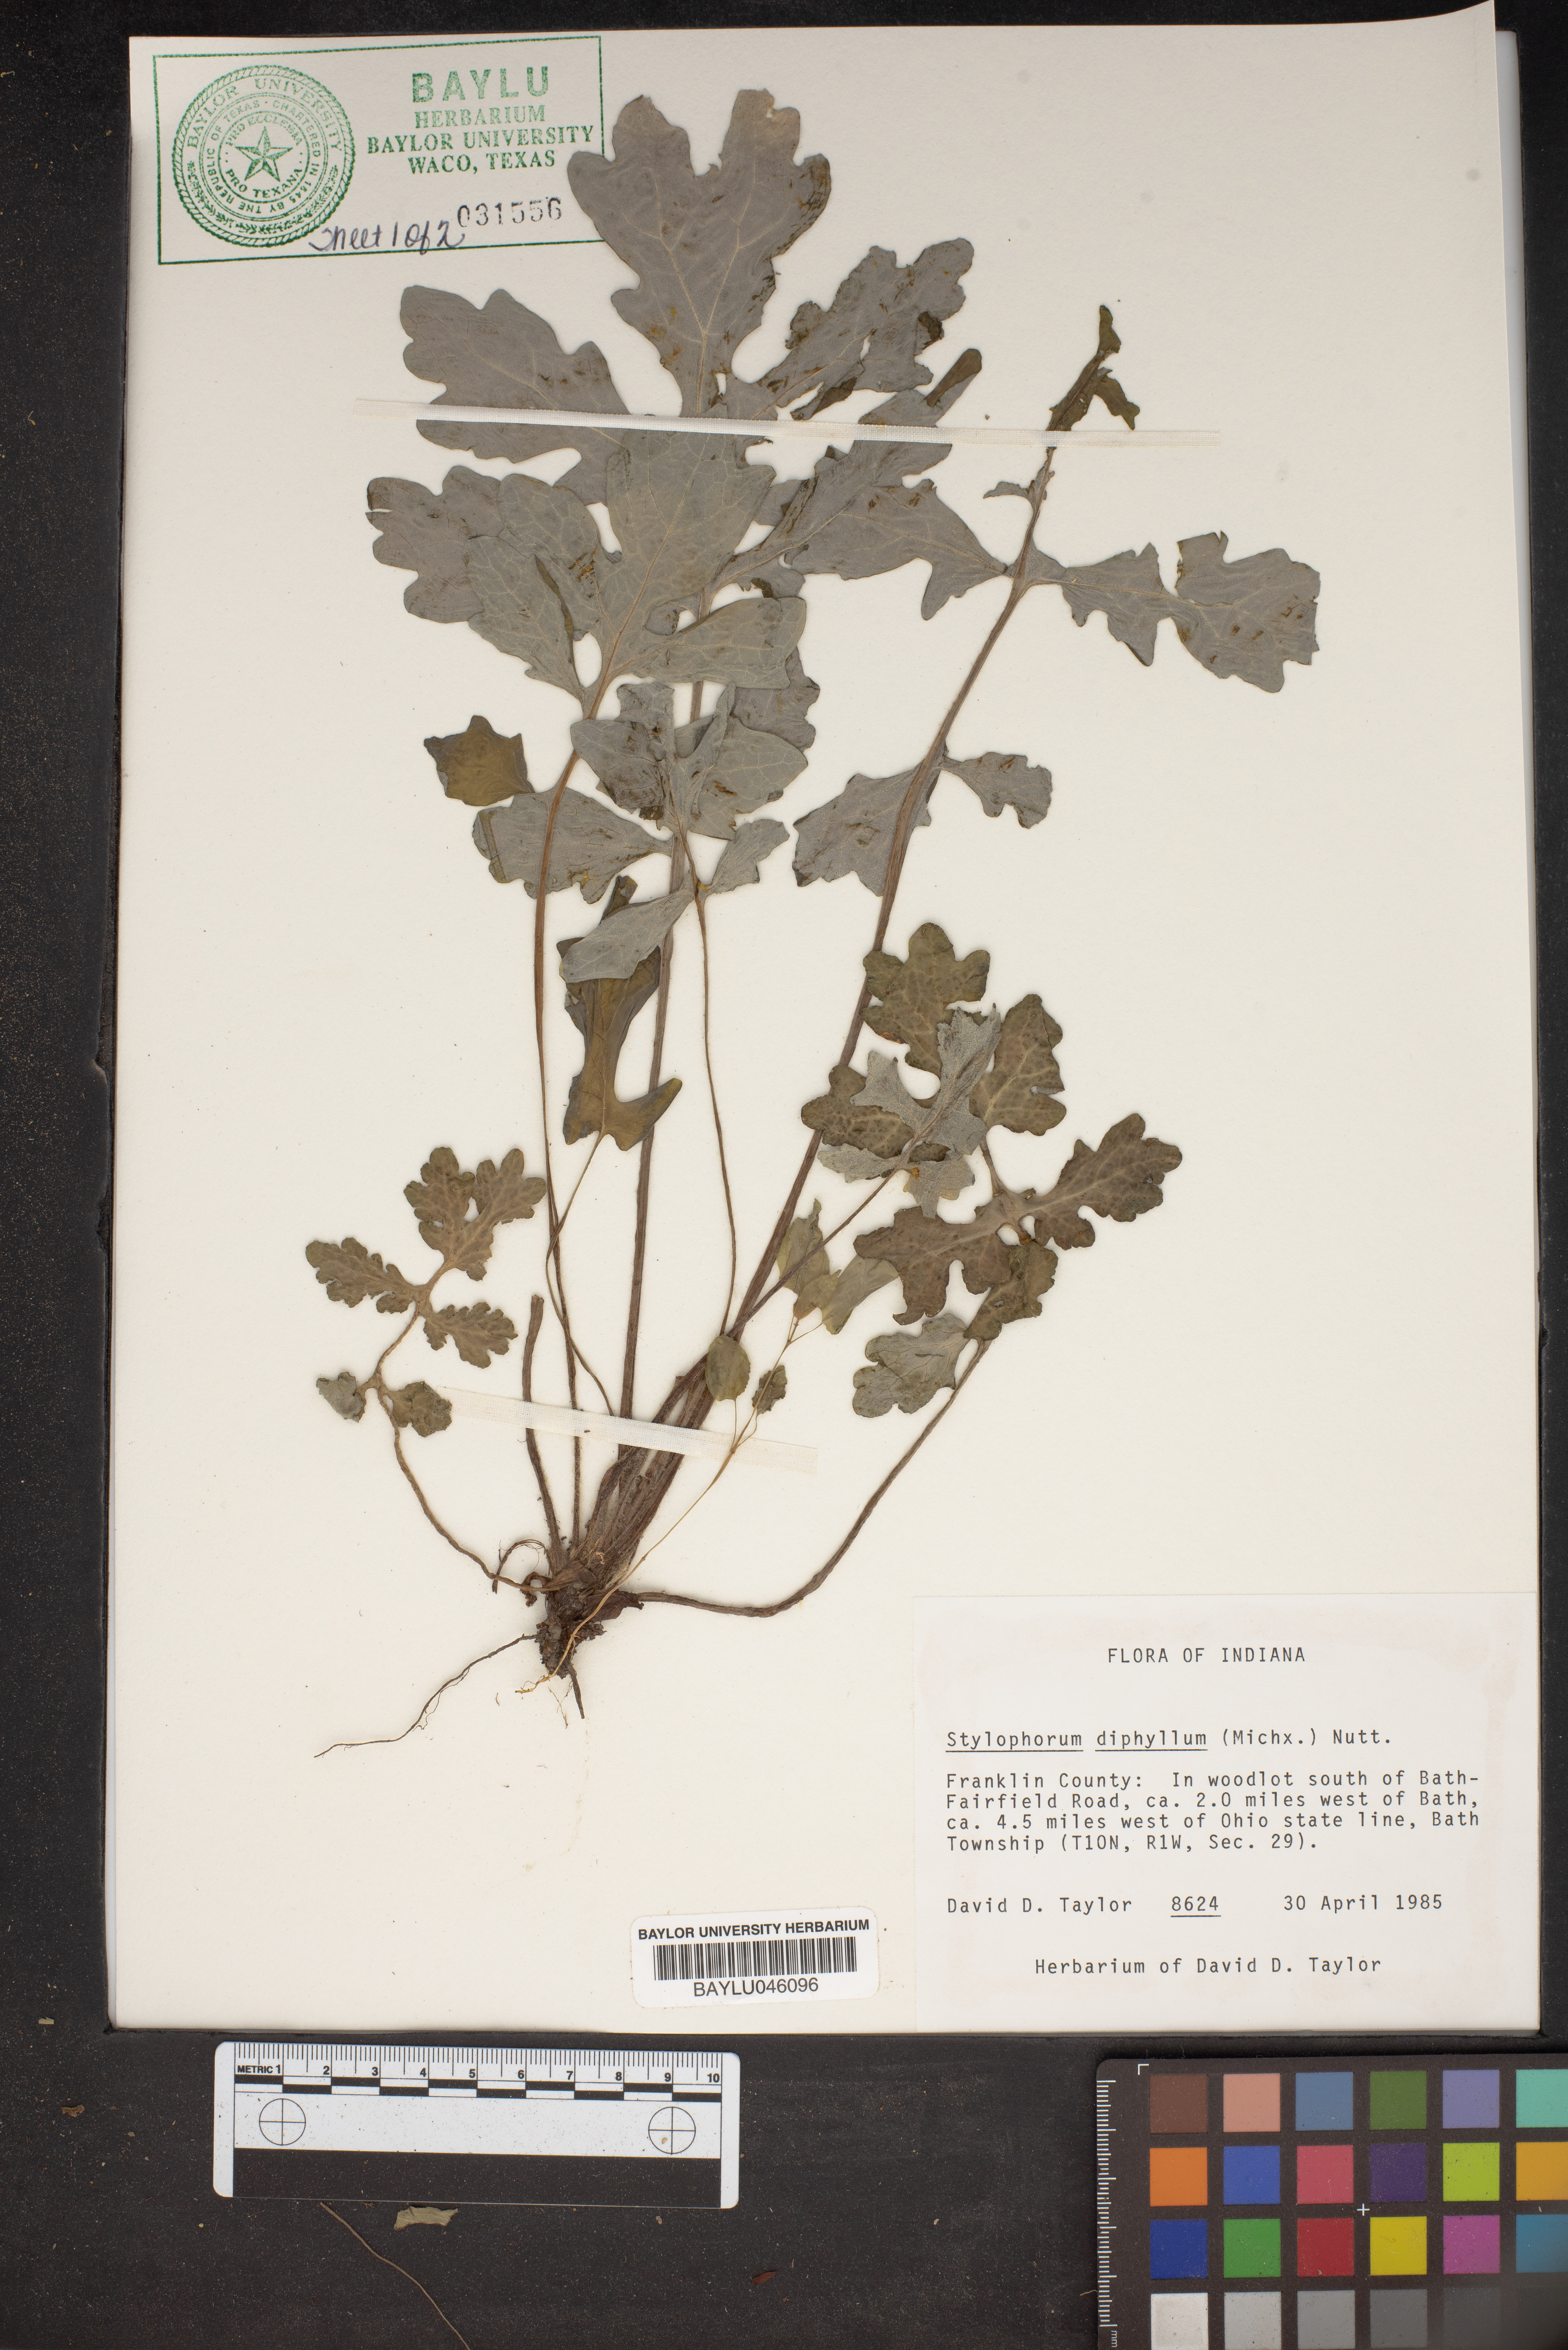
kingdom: Plantae
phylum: Tracheophyta
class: Magnoliopsida
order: Ranunculales
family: Papaveraceae
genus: Stylophorum
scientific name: Stylophorum diphyllum
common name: Celandine poppy
